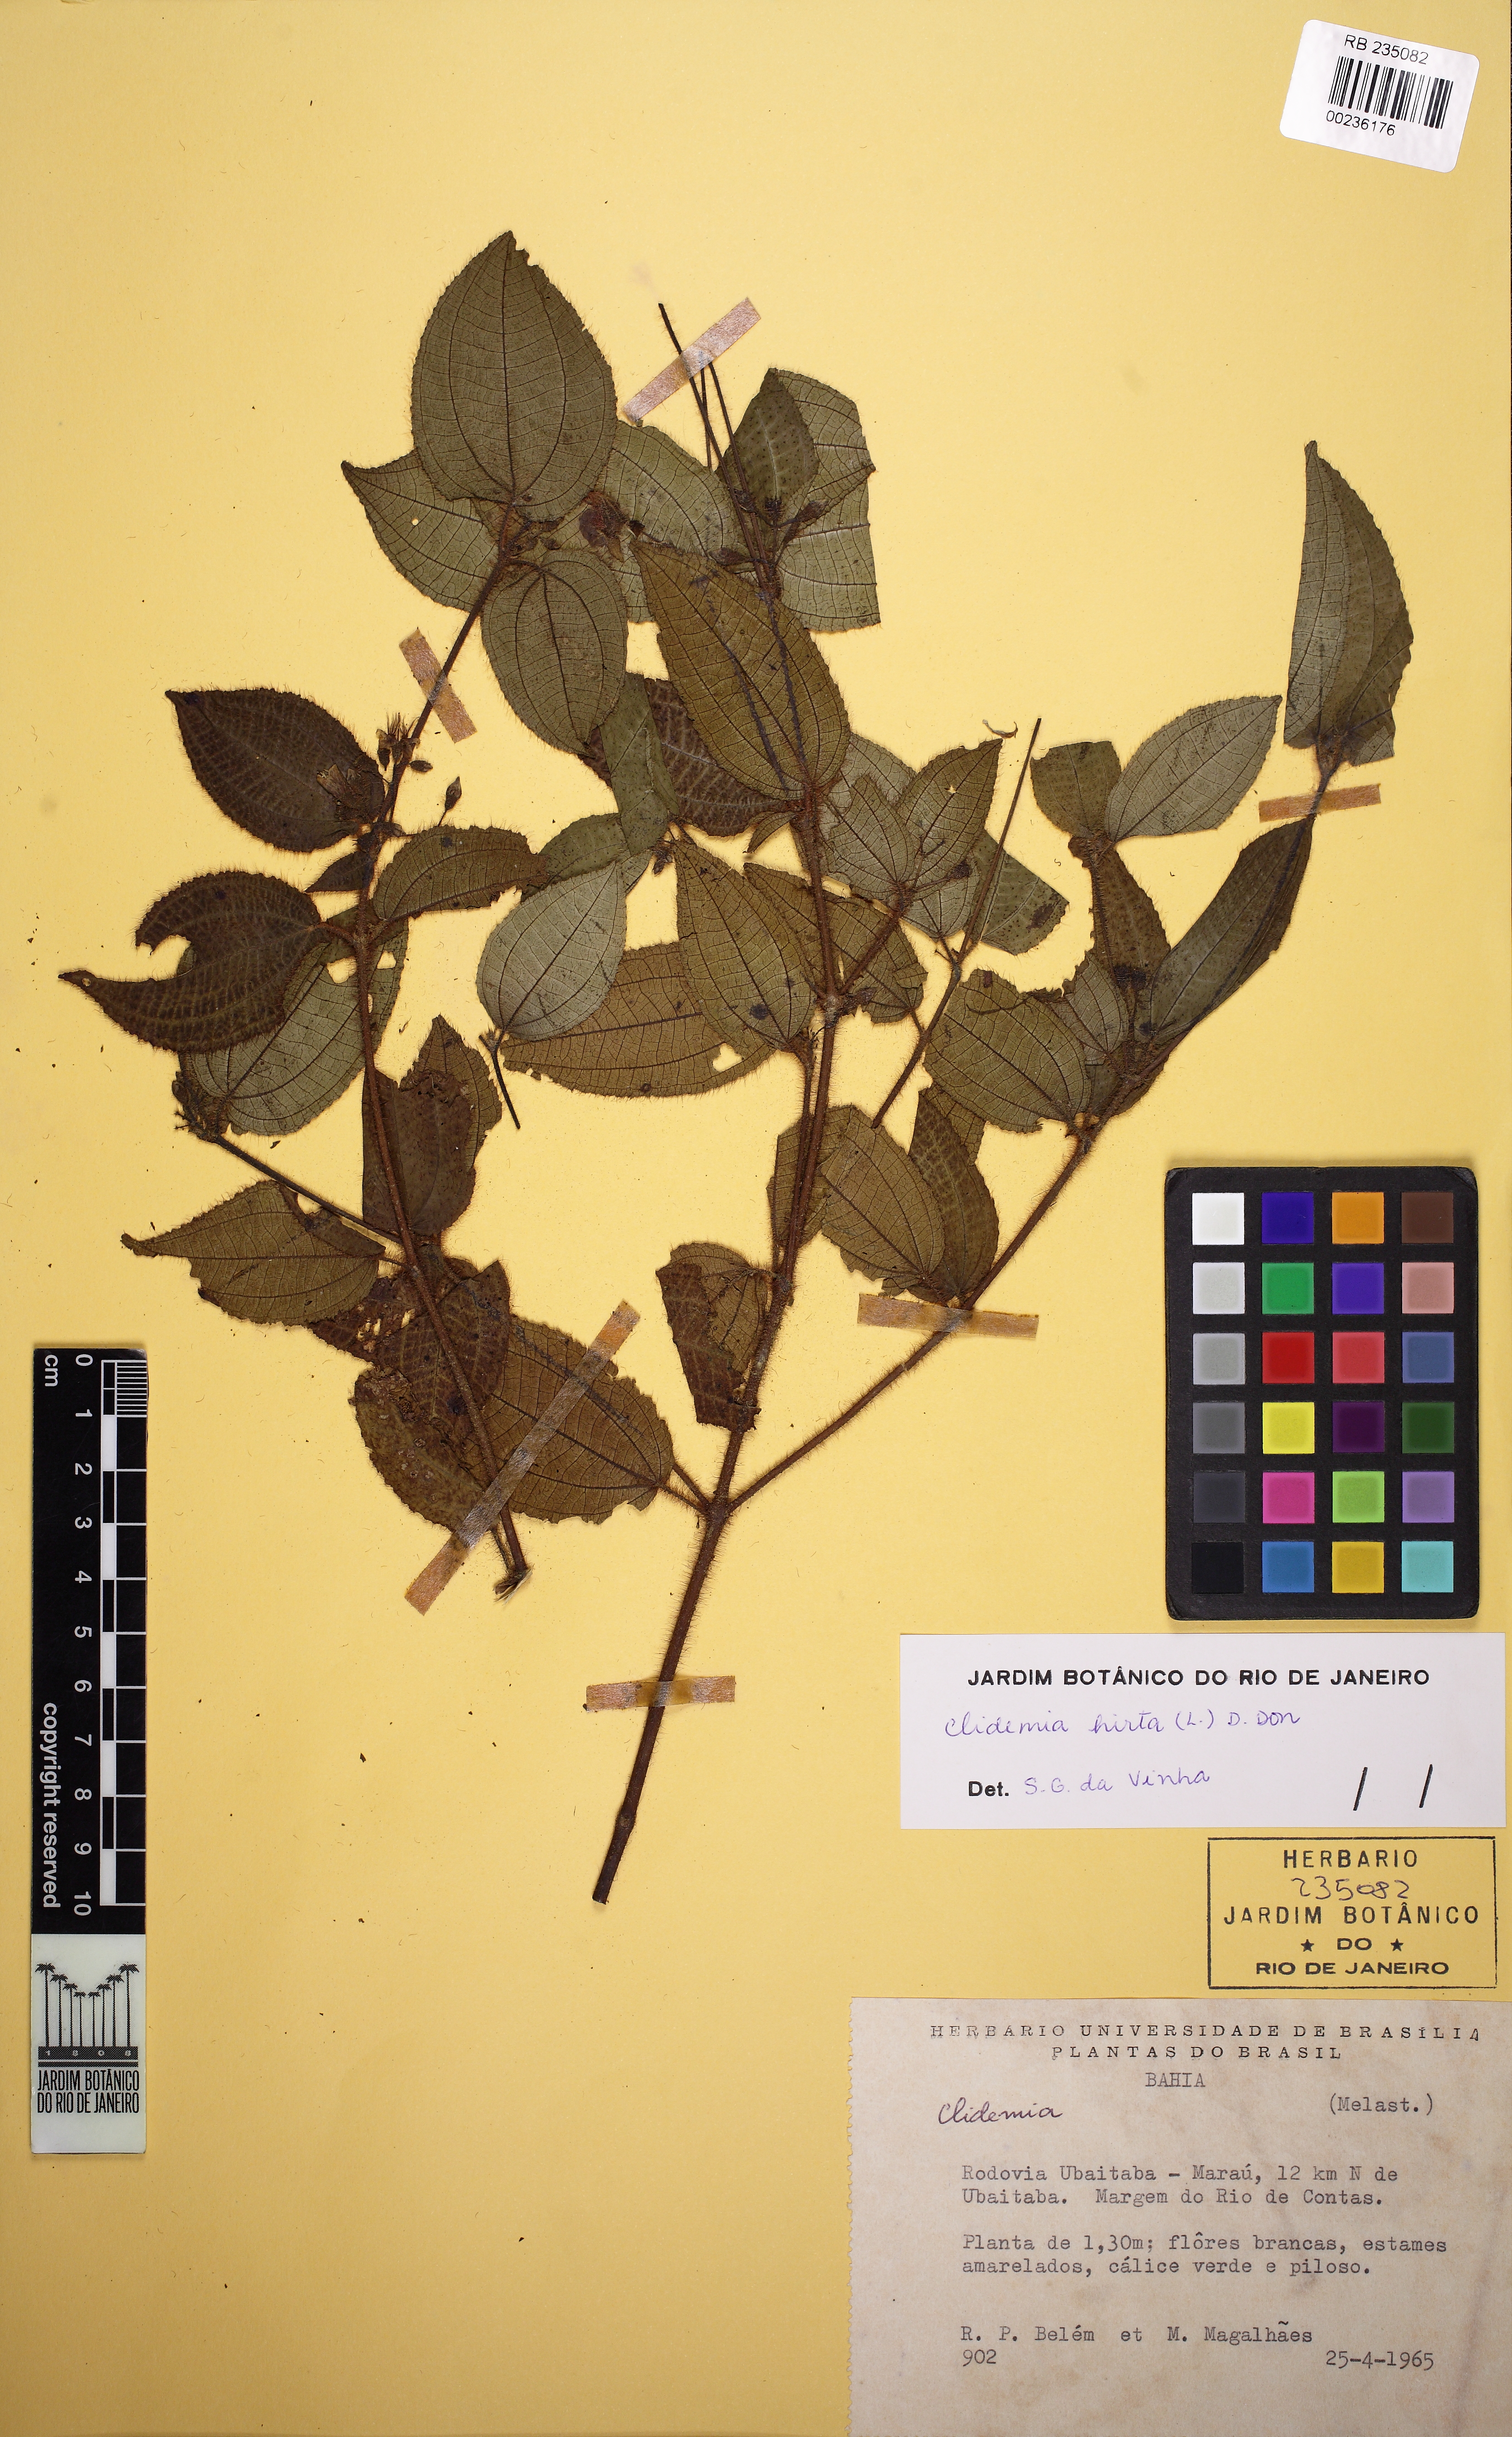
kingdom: Plantae
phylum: Tracheophyta
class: Magnoliopsida
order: Myrtales
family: Melastomataceae
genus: Miconia
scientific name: Miconia crenata
